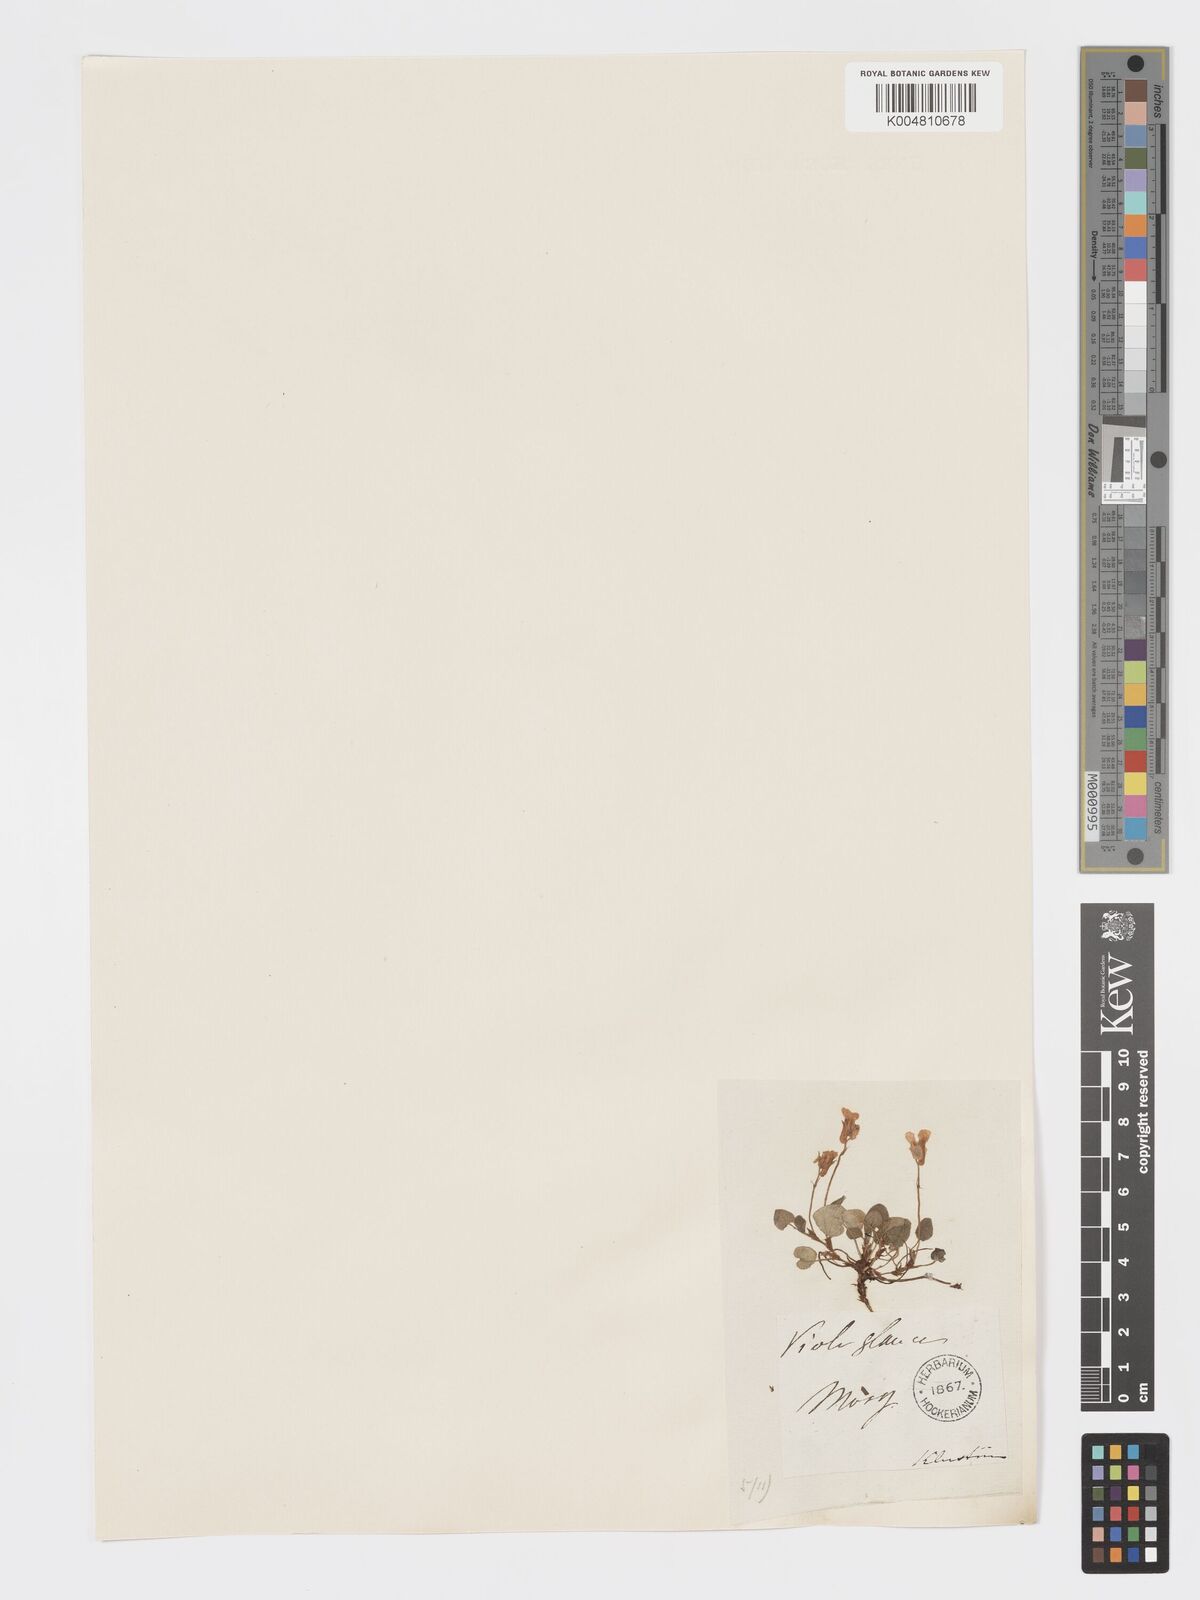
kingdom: Plantae
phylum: Tracheophyta
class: Magnoliopsida
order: Malpighiales
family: Violaceae
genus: Viola
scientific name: Viola rupestris
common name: Teesdale violet
